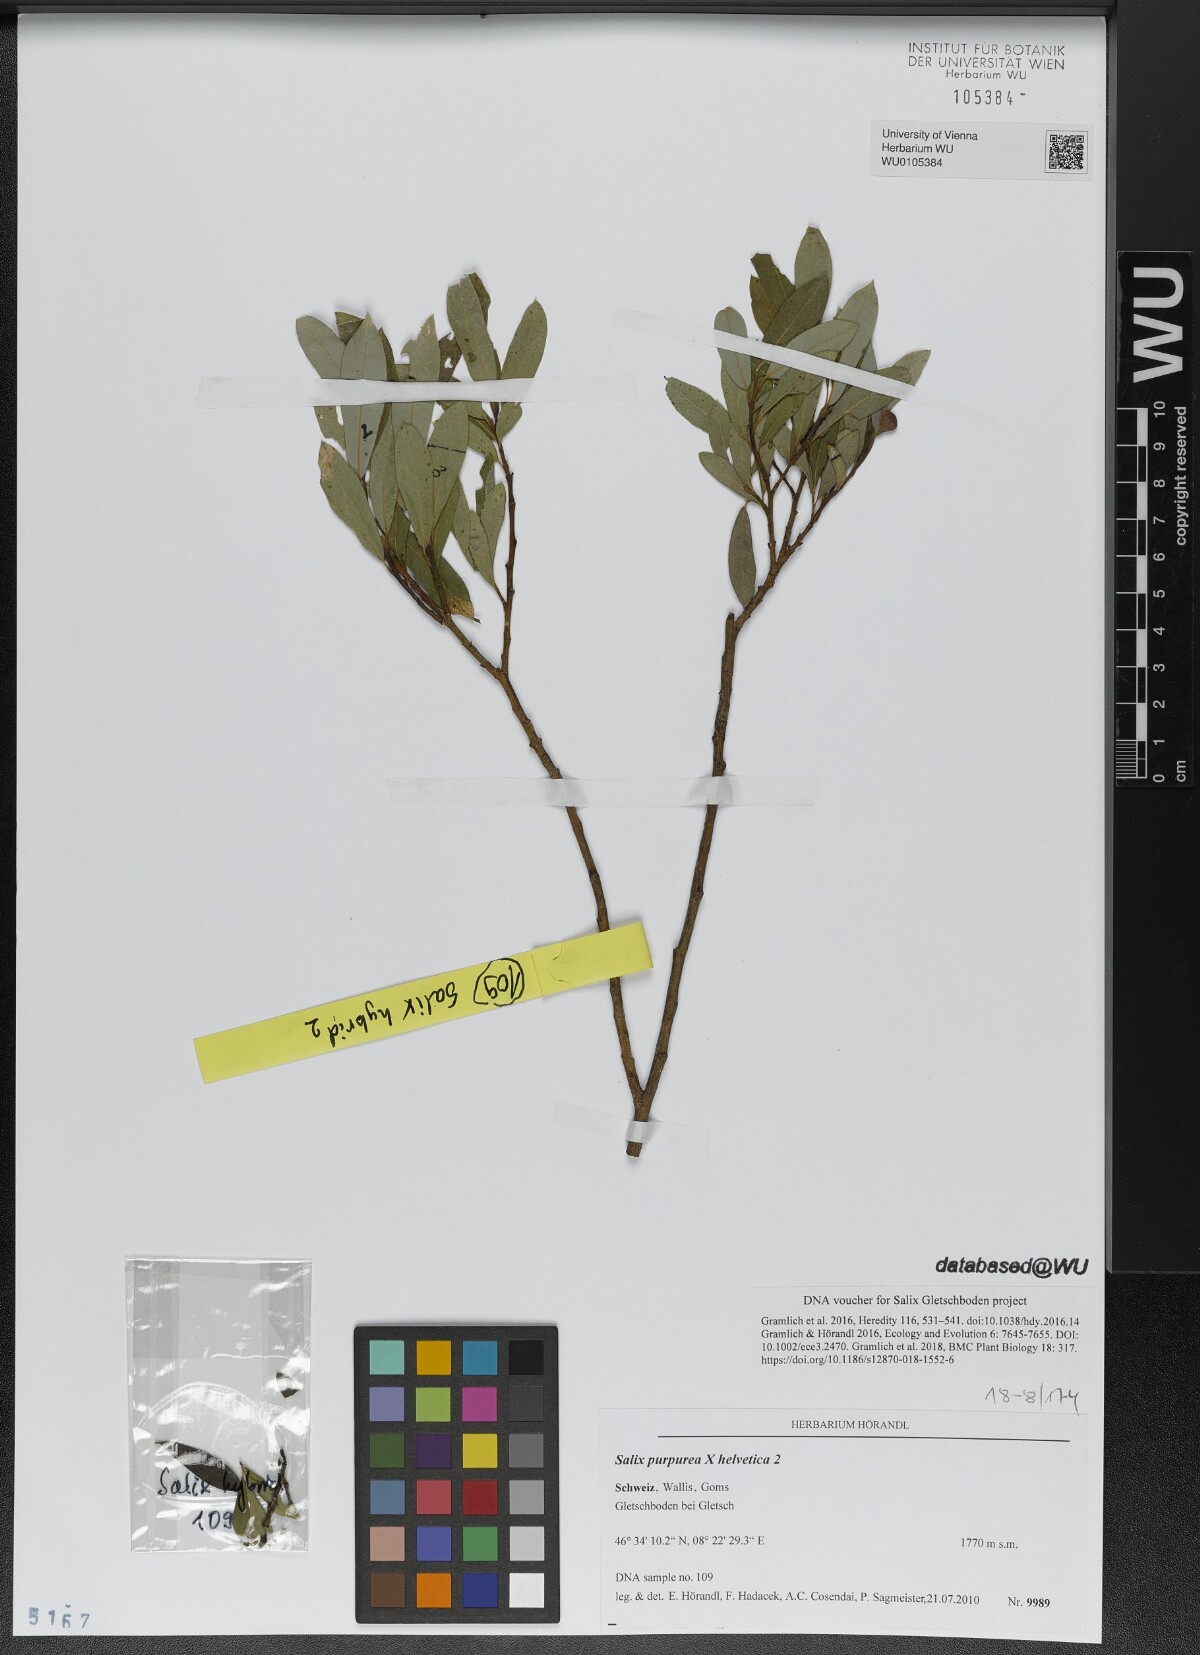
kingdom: Plantae
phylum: Tracheophyta
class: Magnoliopsida
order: Malpighiales
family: Salicaceae
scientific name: Salicaceae
